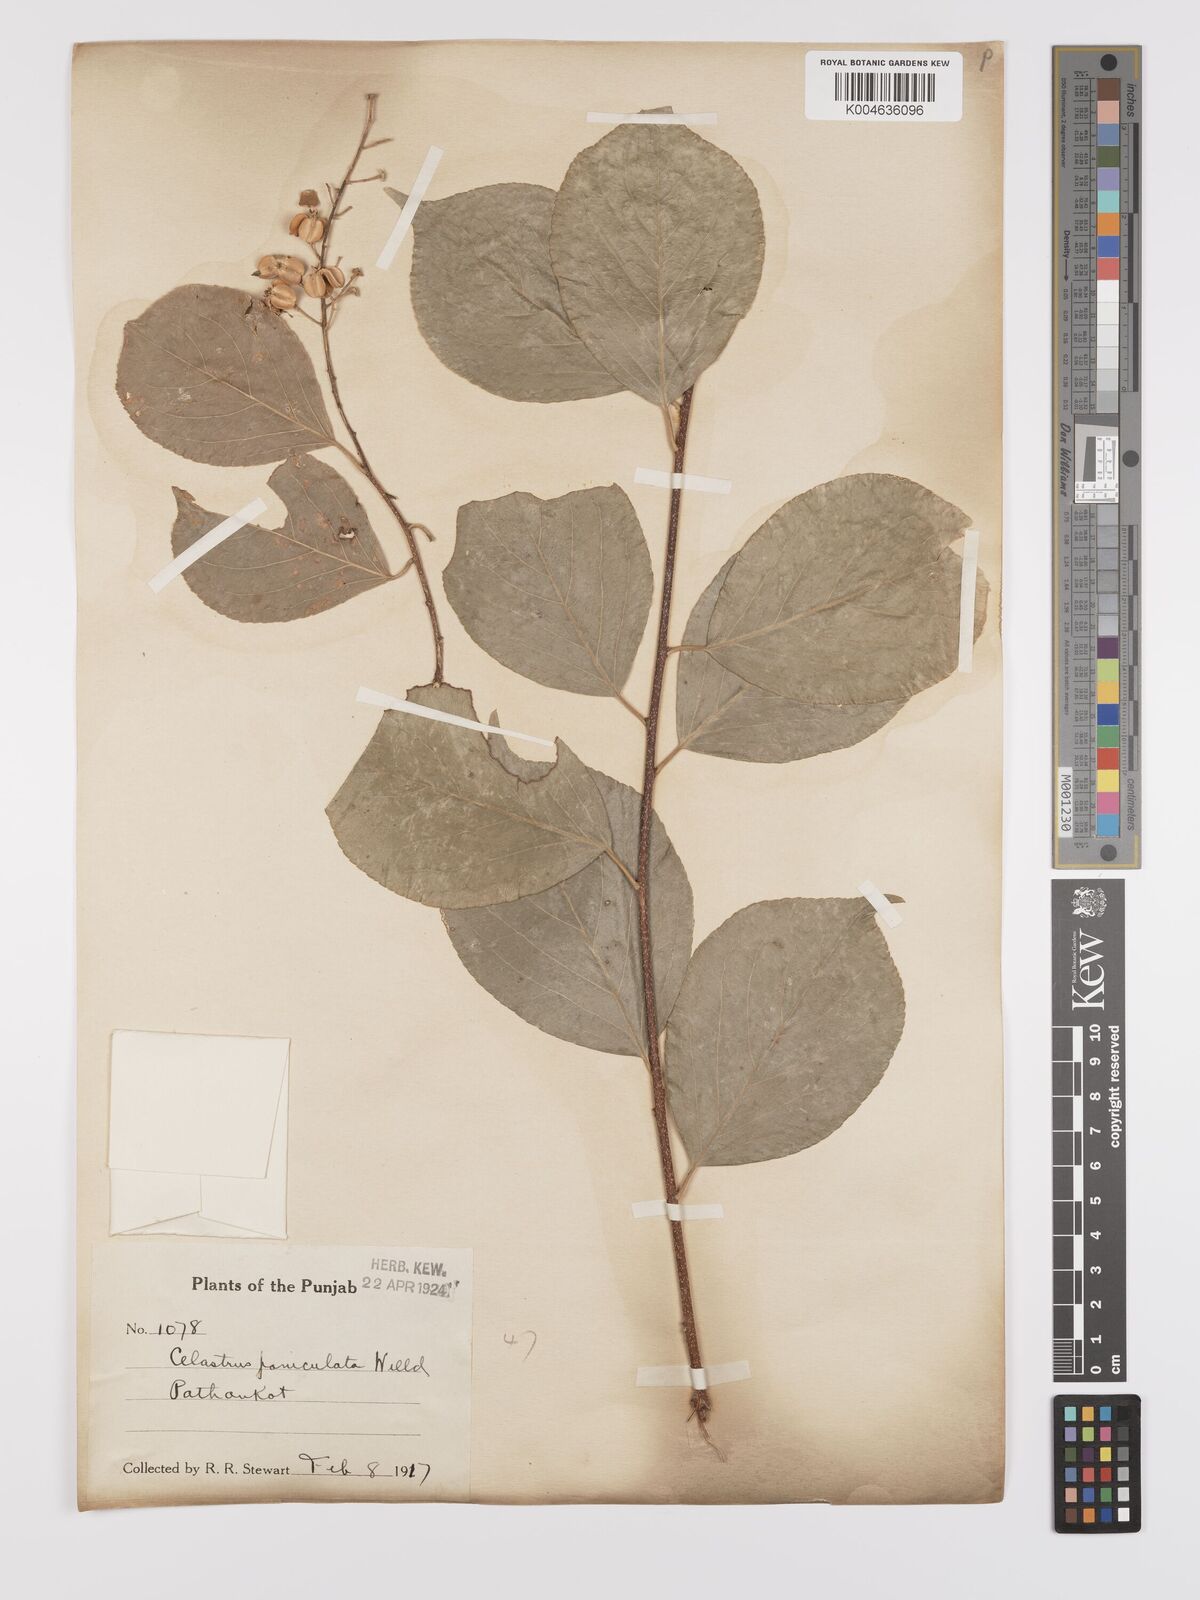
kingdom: Plantae
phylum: Tracheophyta
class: Magnoliopsida
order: Celastrales
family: Celastraceae
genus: Celastrus
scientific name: Celastrus paniculatus
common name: Oriental bittersweet; staff vine
